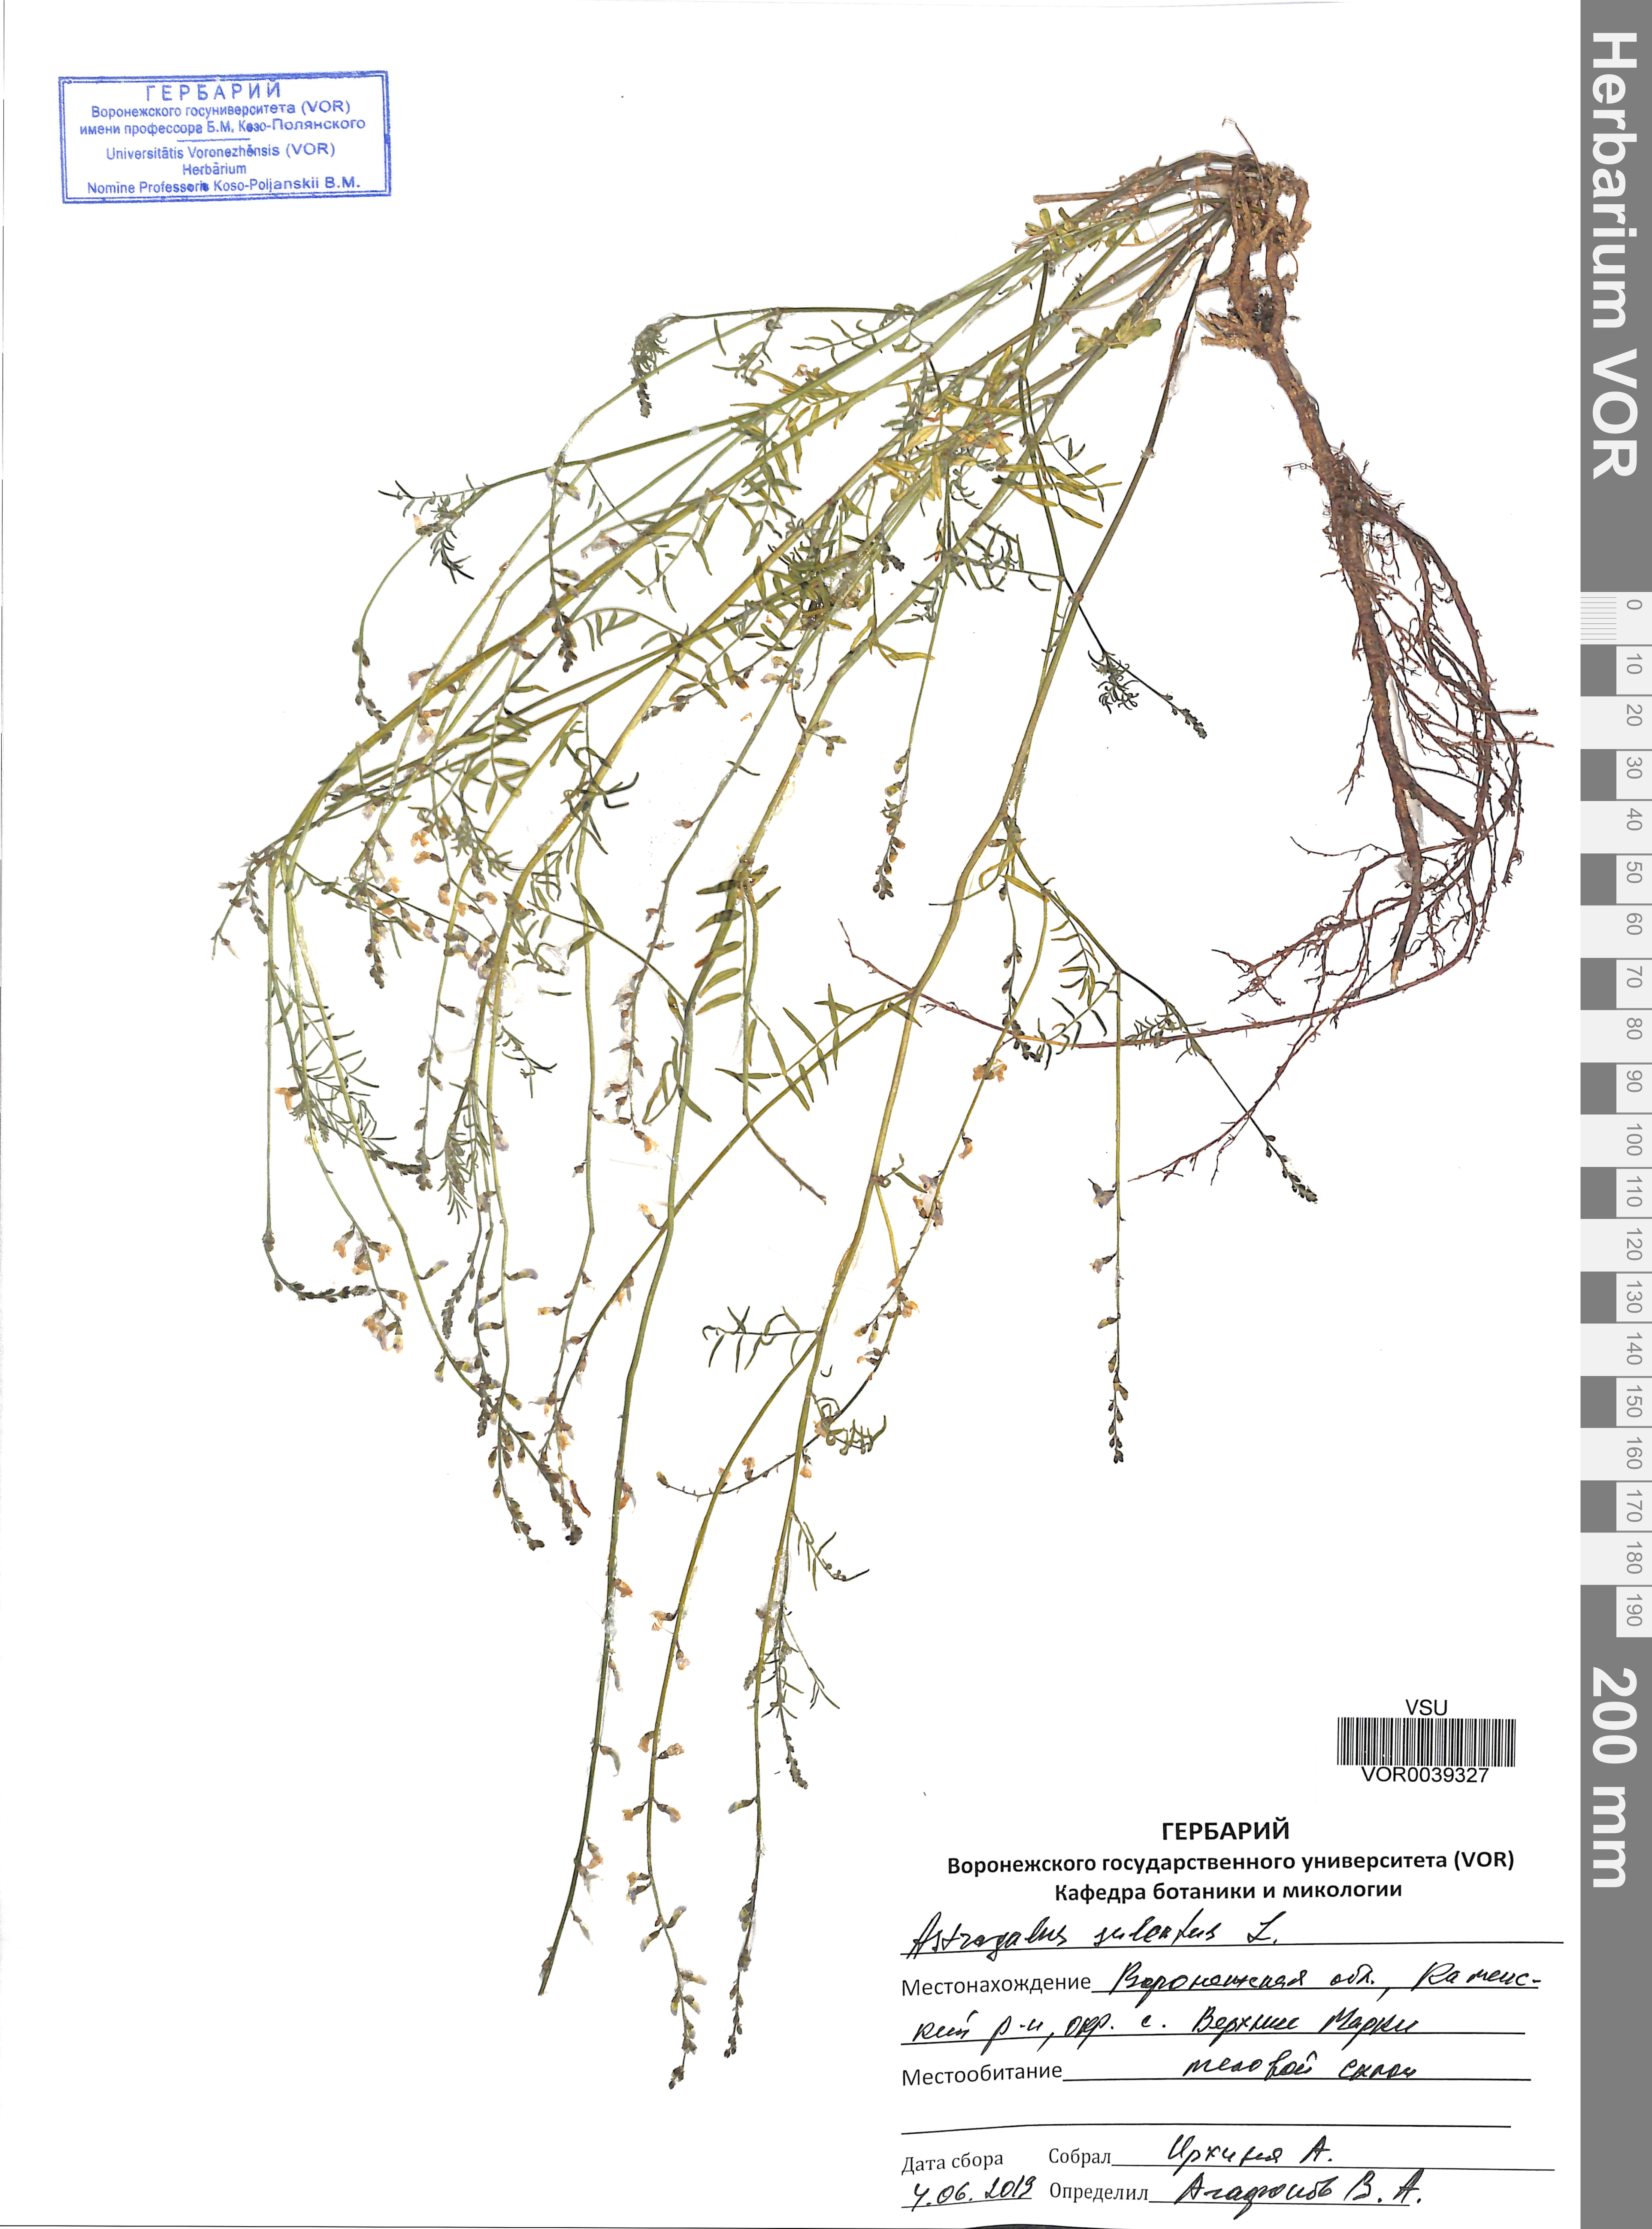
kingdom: Plantae
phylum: Tracheophyta
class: Magnoliopsida
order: Fabales
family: Fabaceae
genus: Astragalus
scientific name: Astragalus sulcatus
